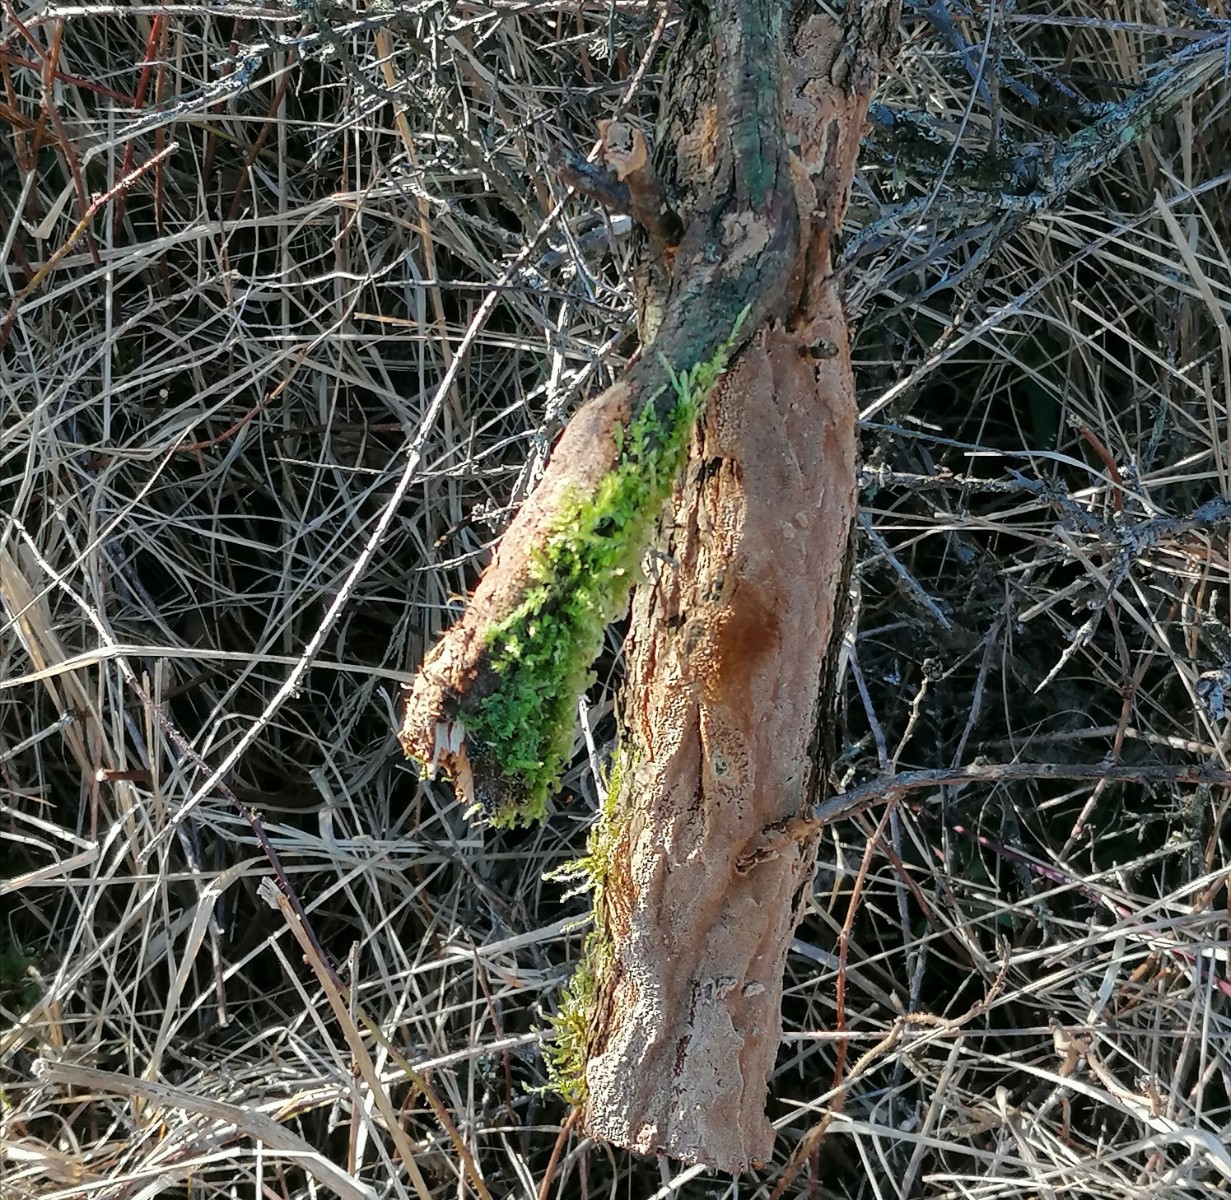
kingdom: Fungi
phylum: Basidiomycota
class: Agaricomycetes
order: Hymenochaetales
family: Hymenochaetaceae
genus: Fuscoporia
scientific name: Fuscoporia contigua
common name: grov ildporesvamp
